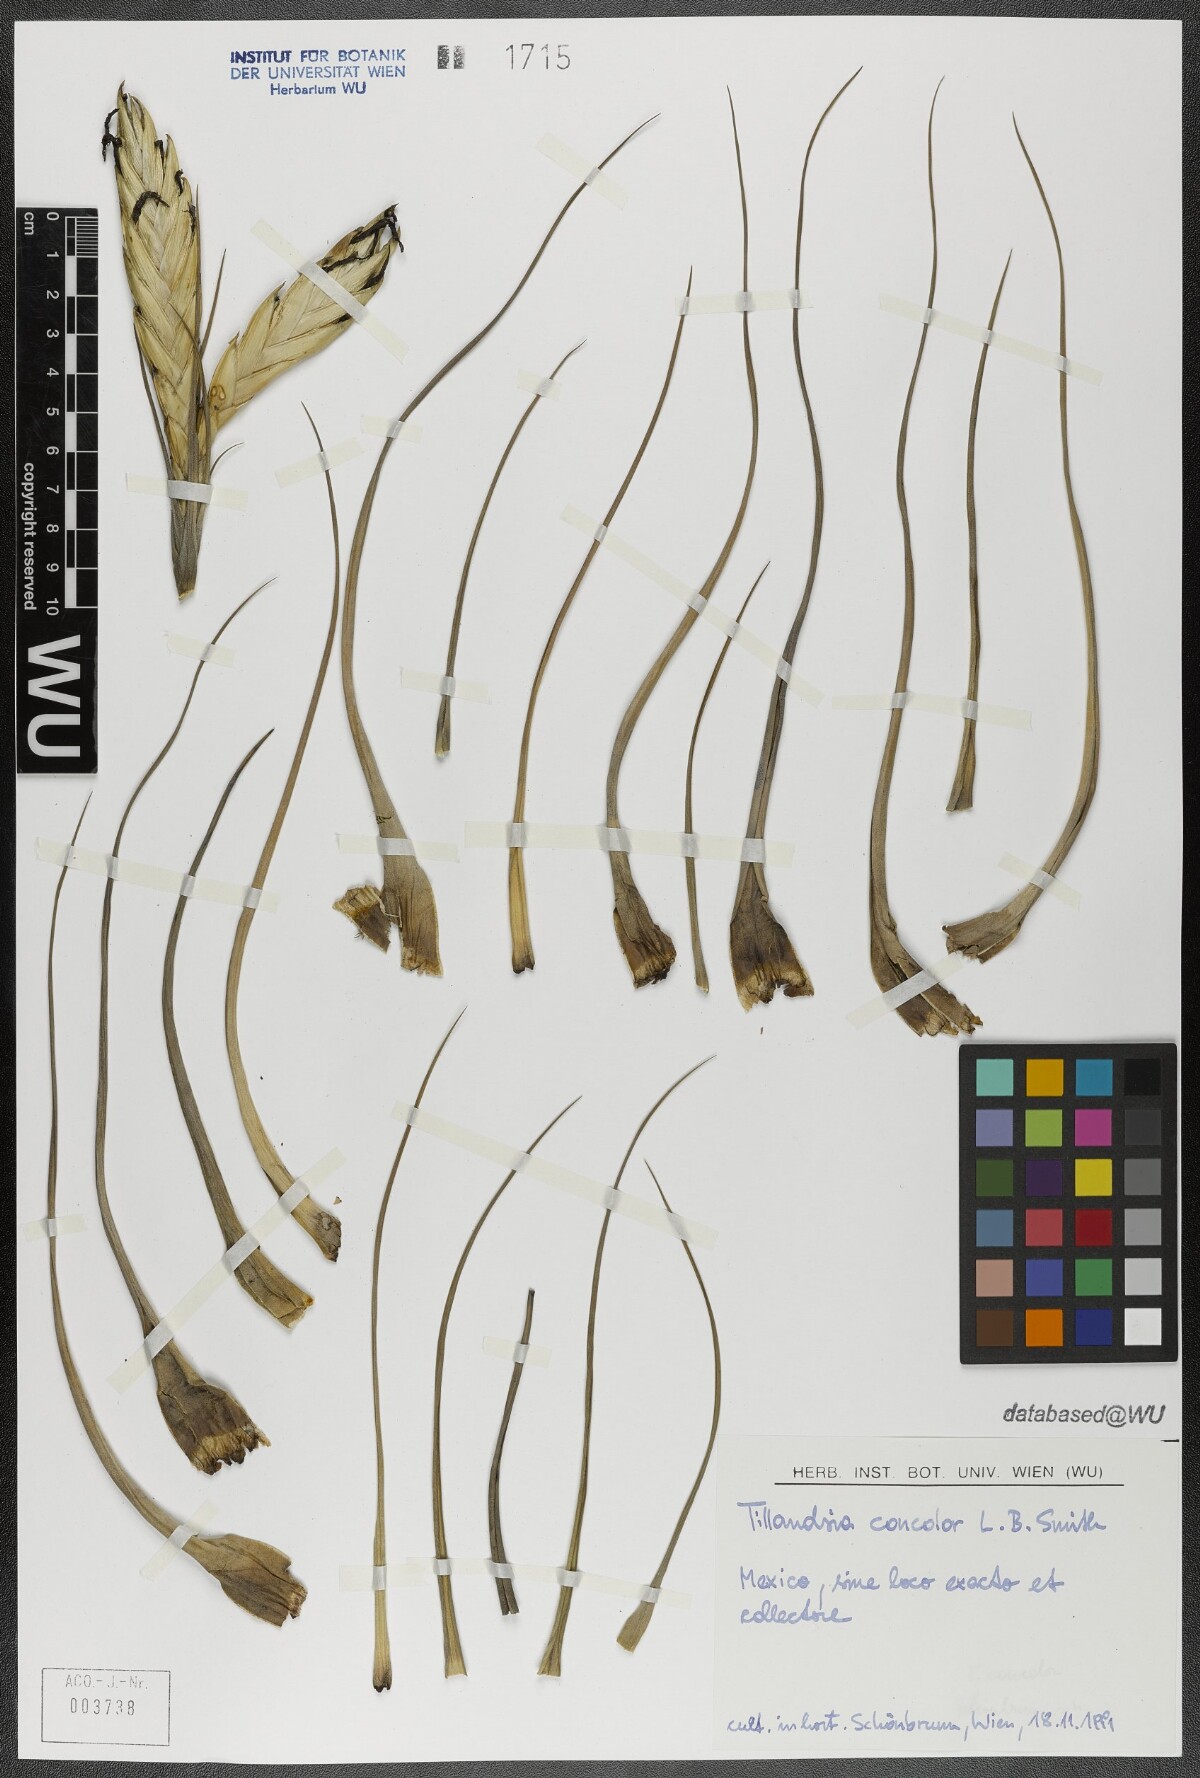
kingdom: Plantae
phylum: Tracheophyta
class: Liliopsida
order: Poales
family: Bromeliaceae
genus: Tillandsia
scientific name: Tillandsia concolor
